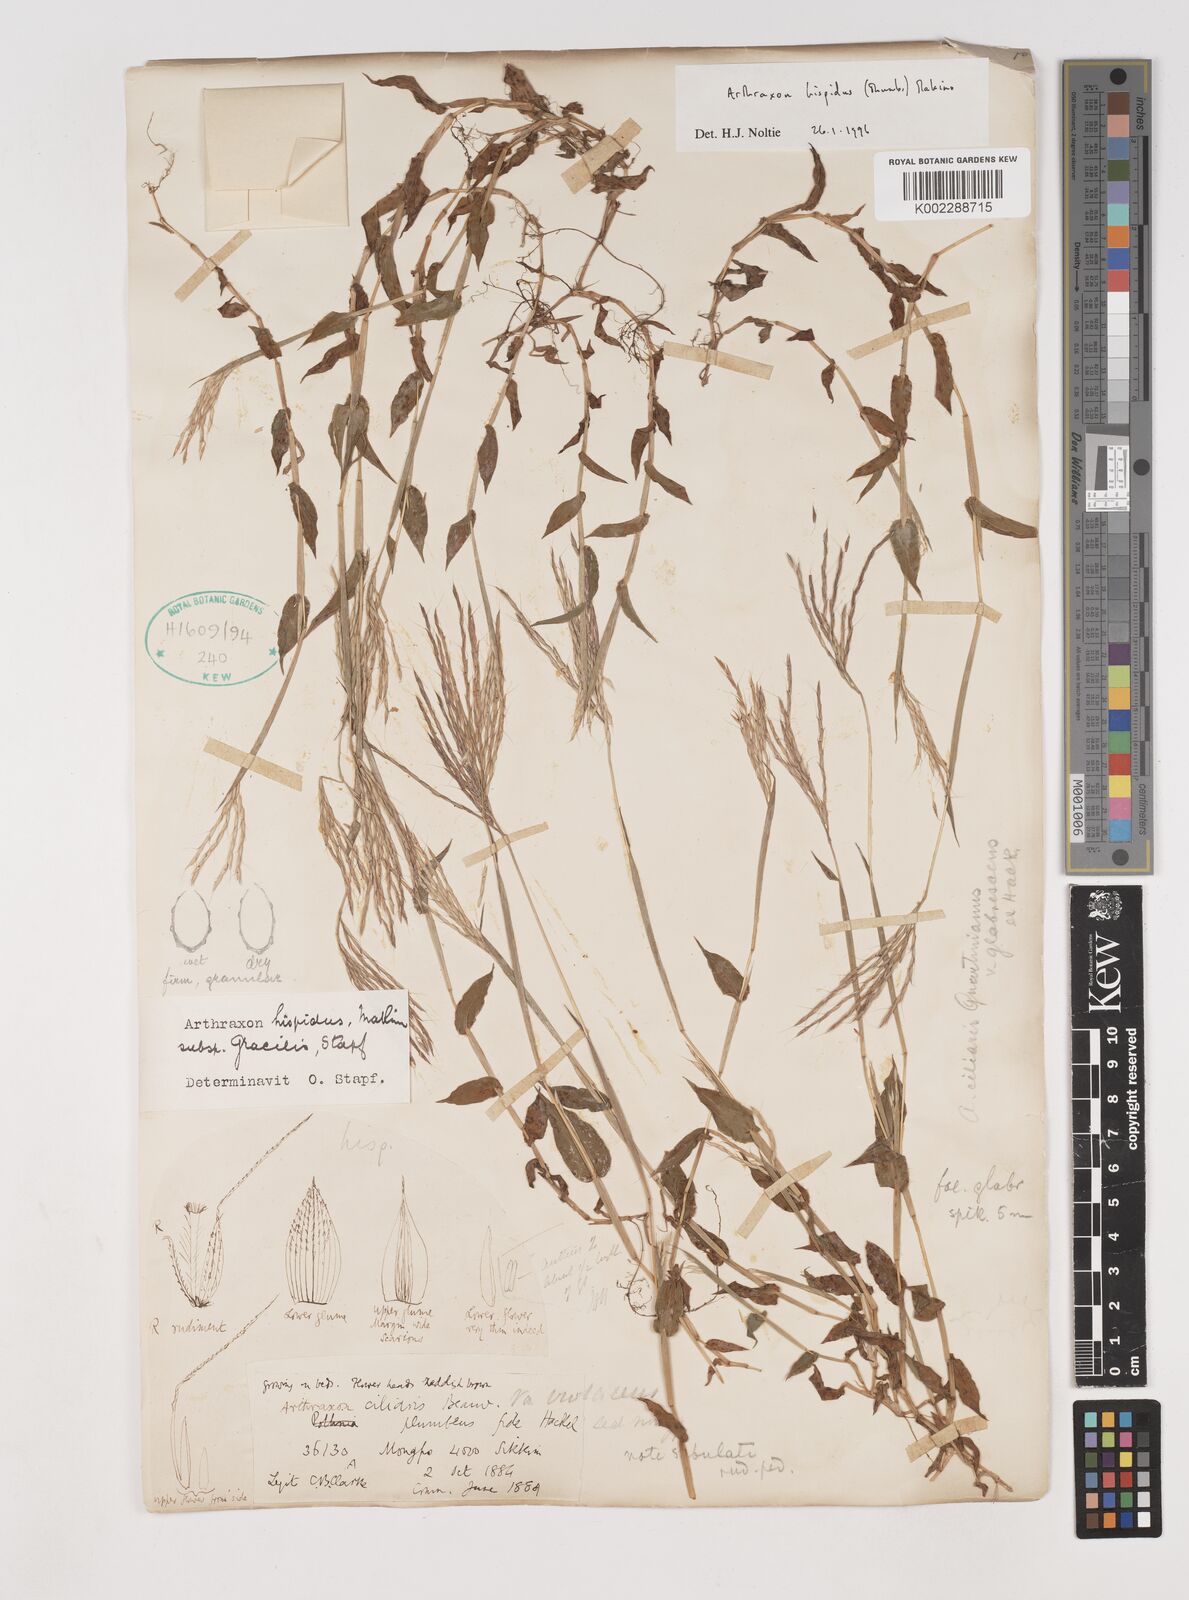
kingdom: Plantae
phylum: Tracheophyta
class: Liliopsida
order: Poales
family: Poaceae
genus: Arthraxon
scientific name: Arthraxon hispidus
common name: Small carpgrass
